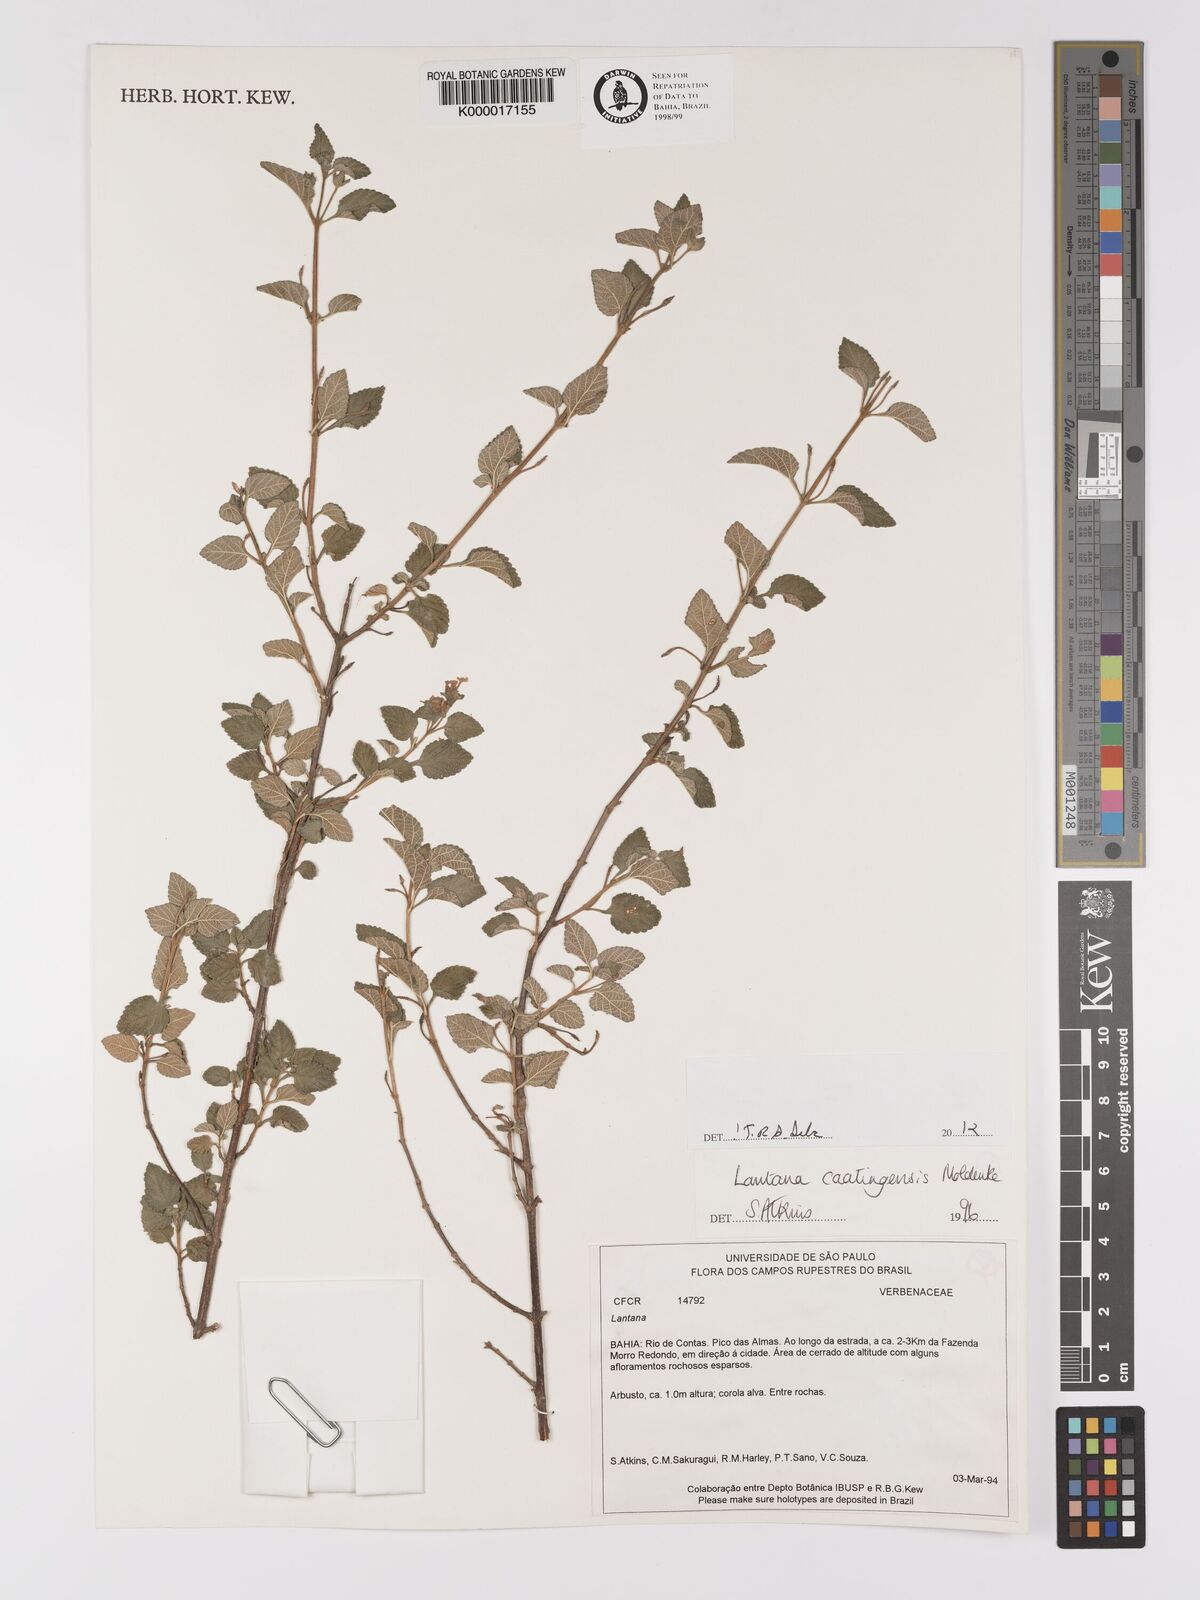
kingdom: Plantae
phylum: Tracheophyta
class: Magnoliopsida
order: Lamiales
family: Verbenaceae
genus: Lantana
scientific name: Lantana caatingensis
